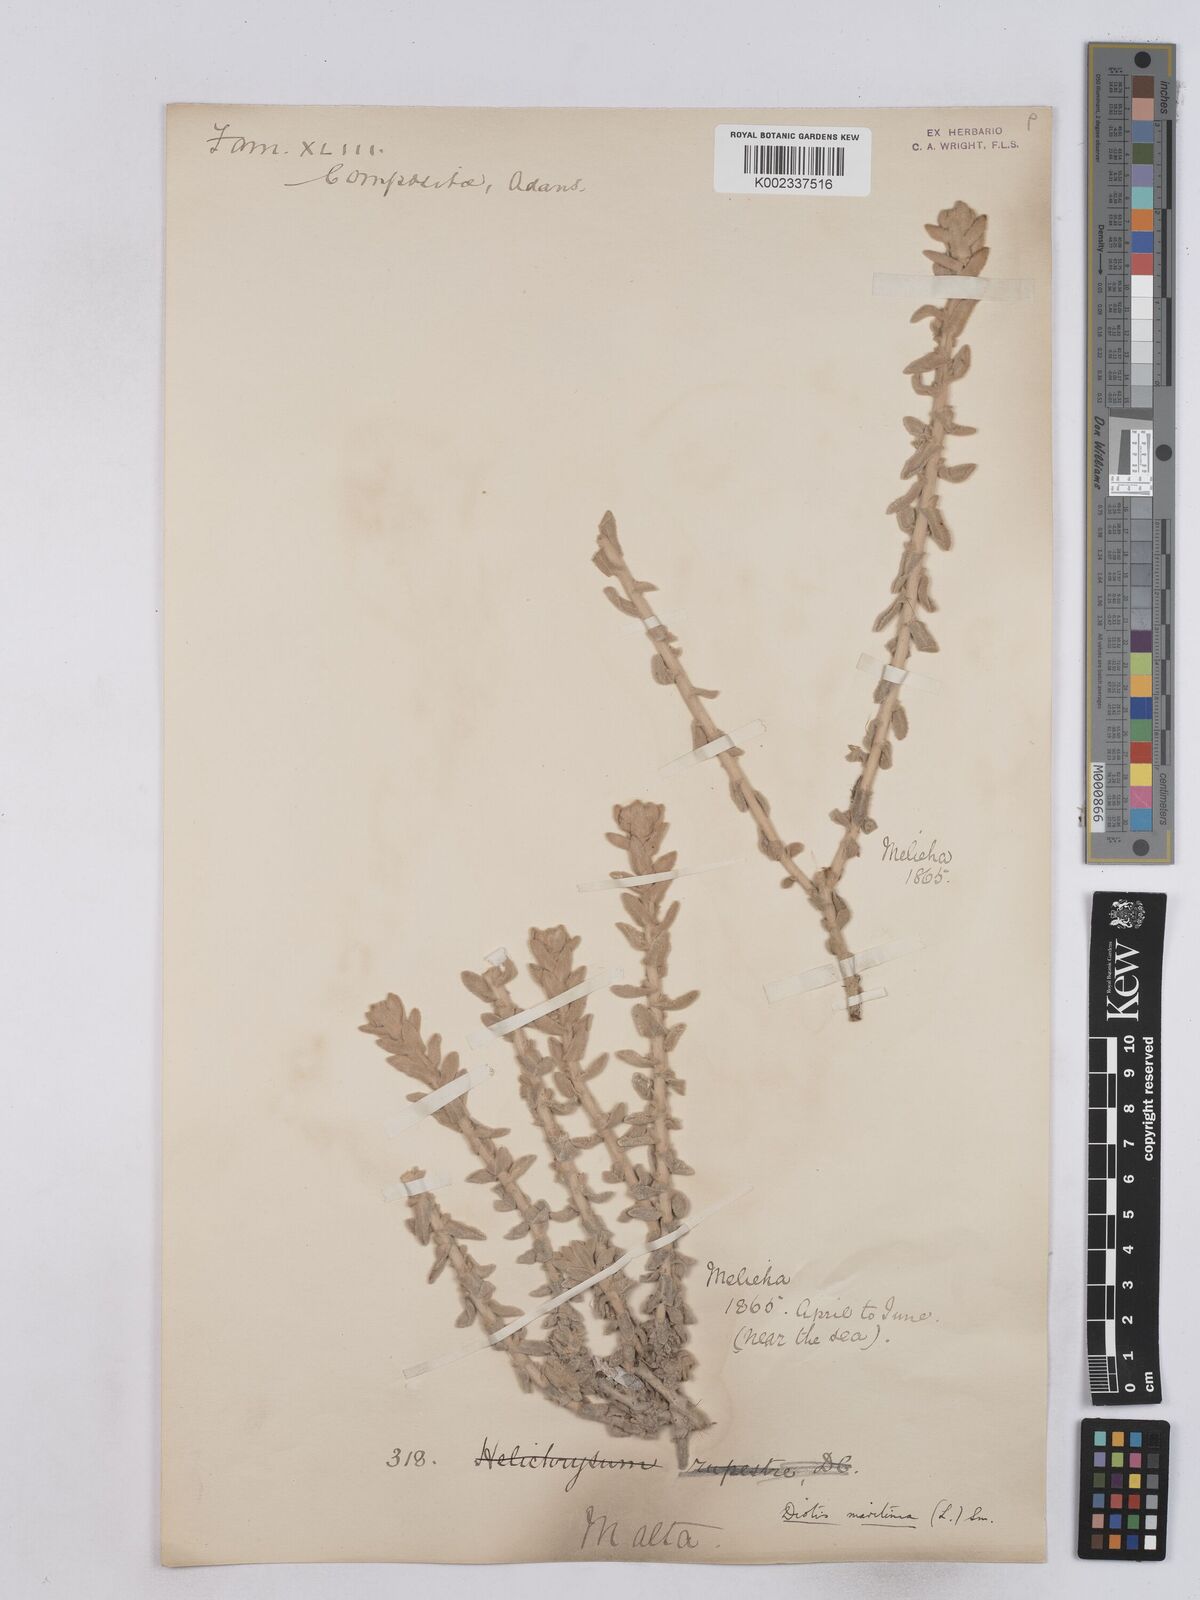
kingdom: Plantae
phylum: Tracheophyta
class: Magnoliopsida
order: Asterales
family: Asteraceae
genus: Achillea
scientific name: Achillea maritima
